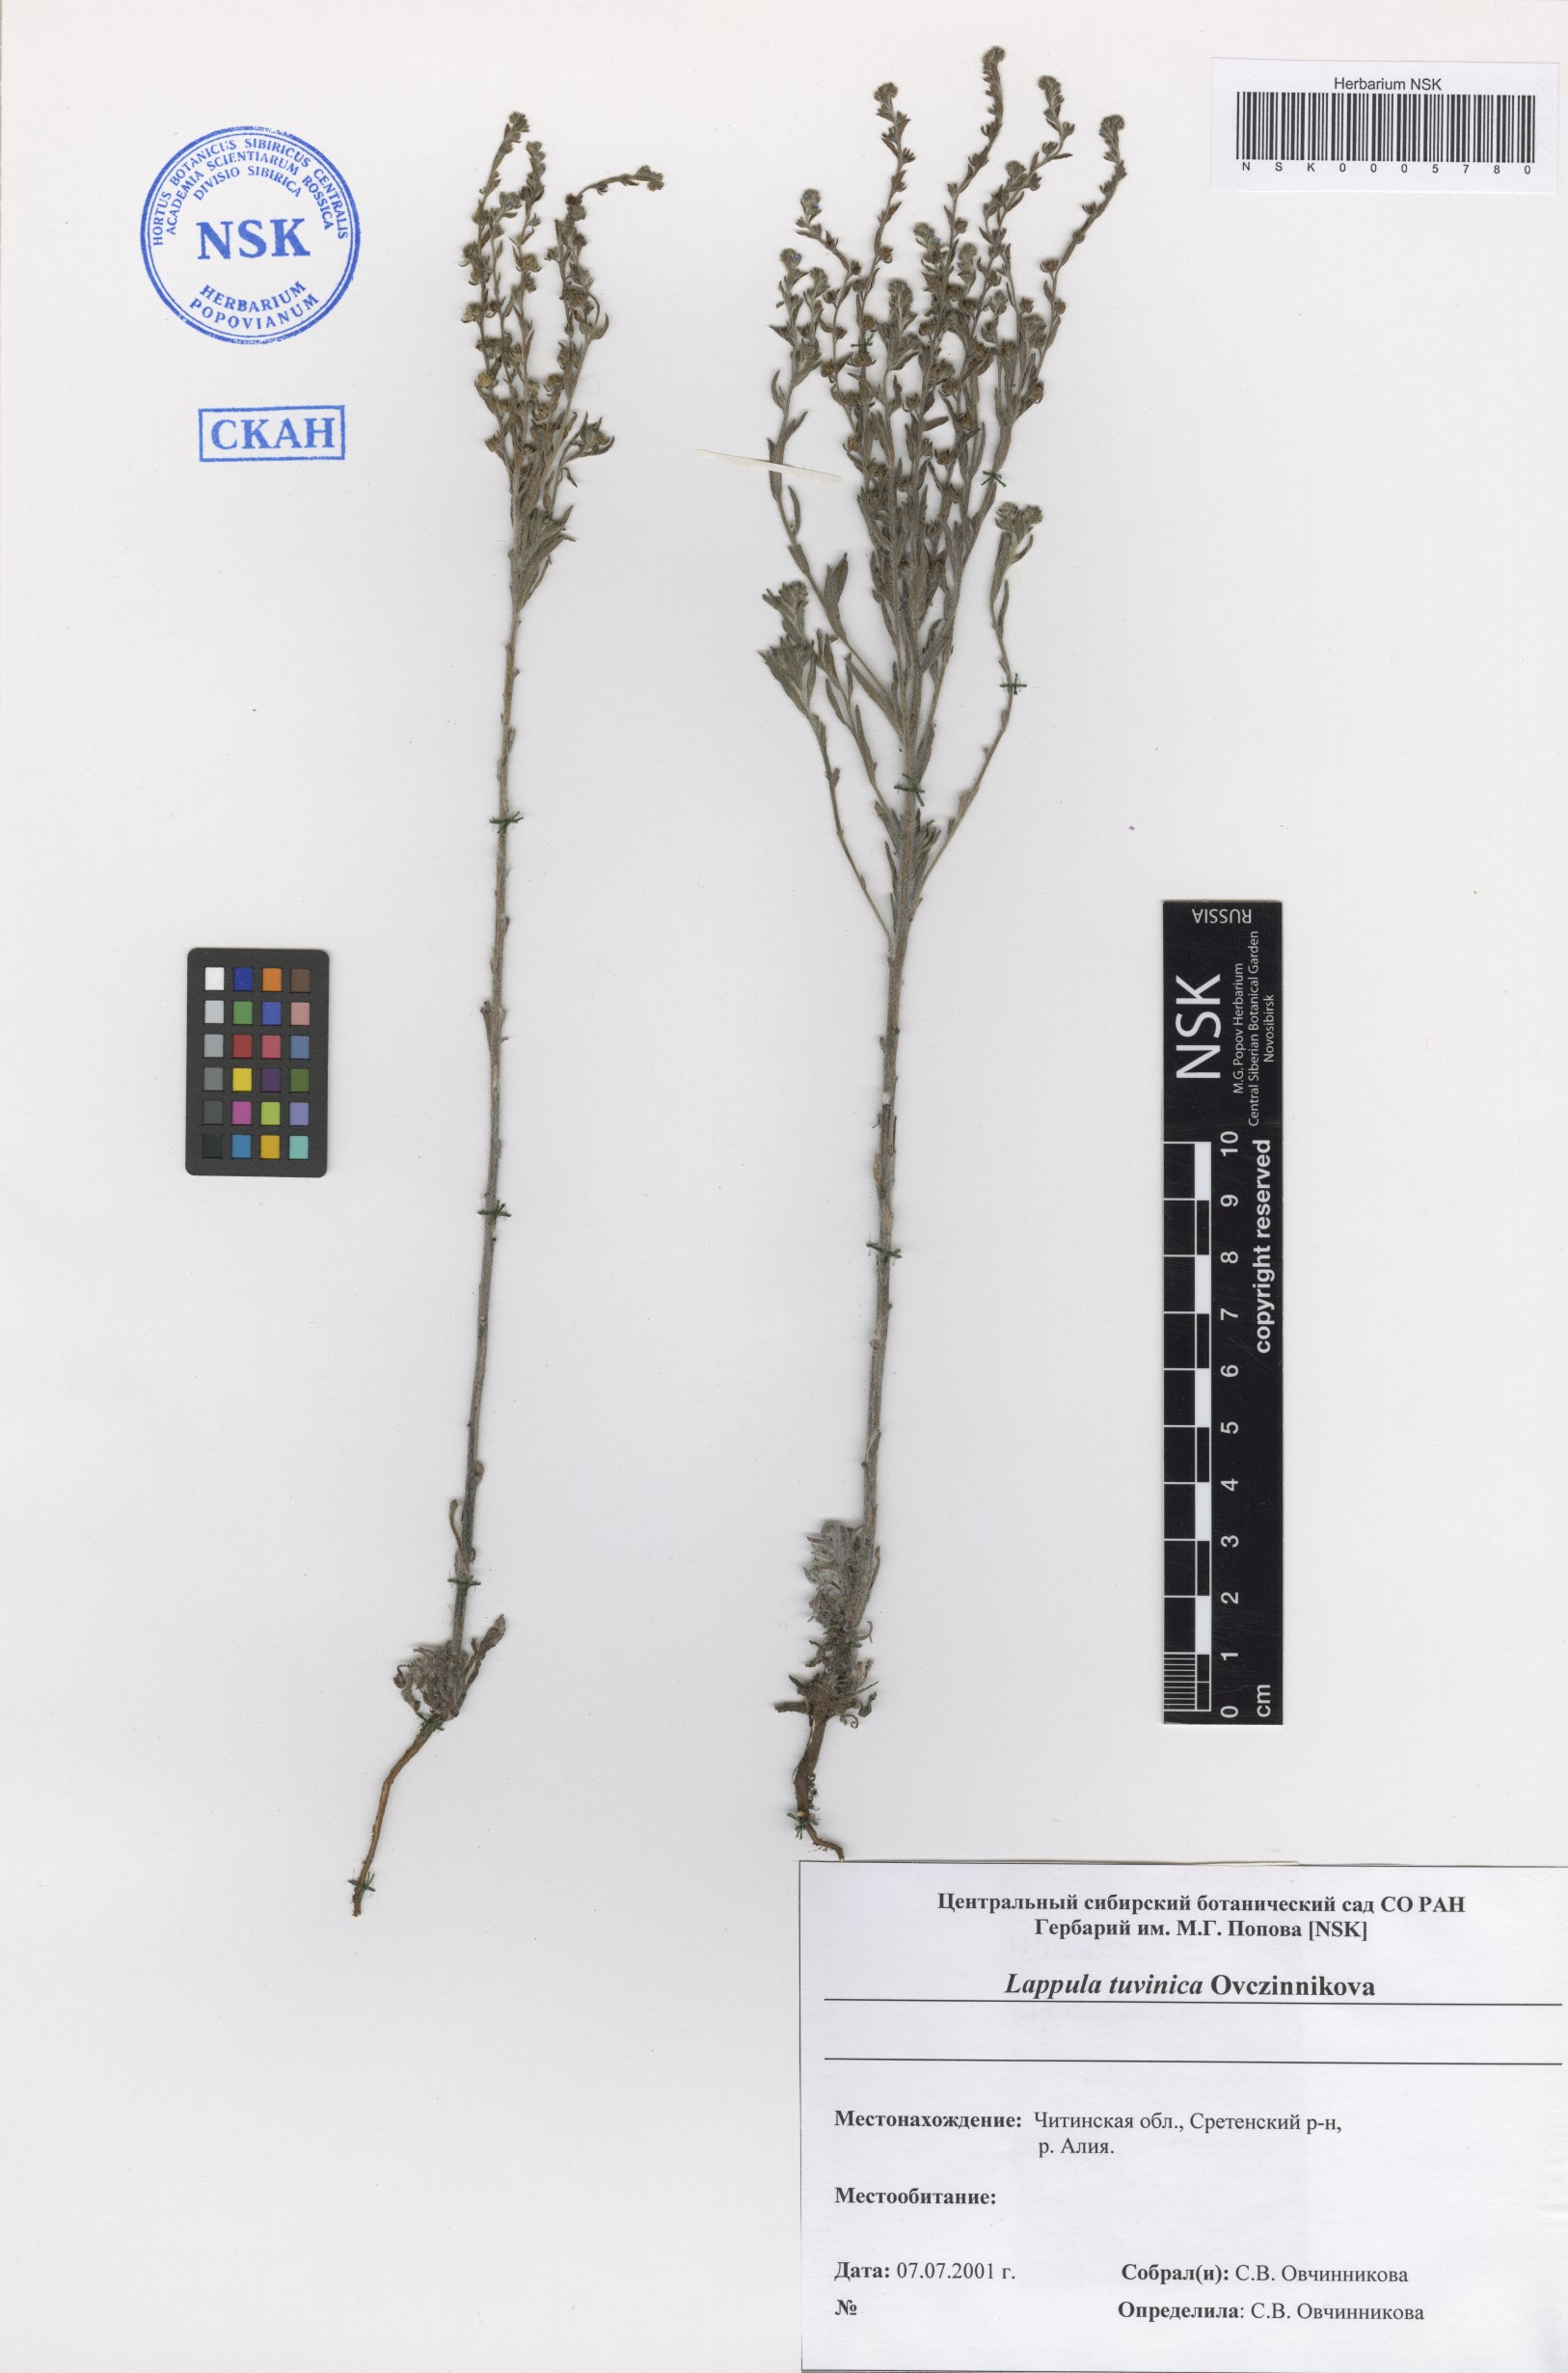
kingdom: Plantae
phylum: Tracheophyta
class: Magnoliopsida
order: Boraginales
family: Boraginaceae
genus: Lappula
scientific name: Lappula tuvinica
